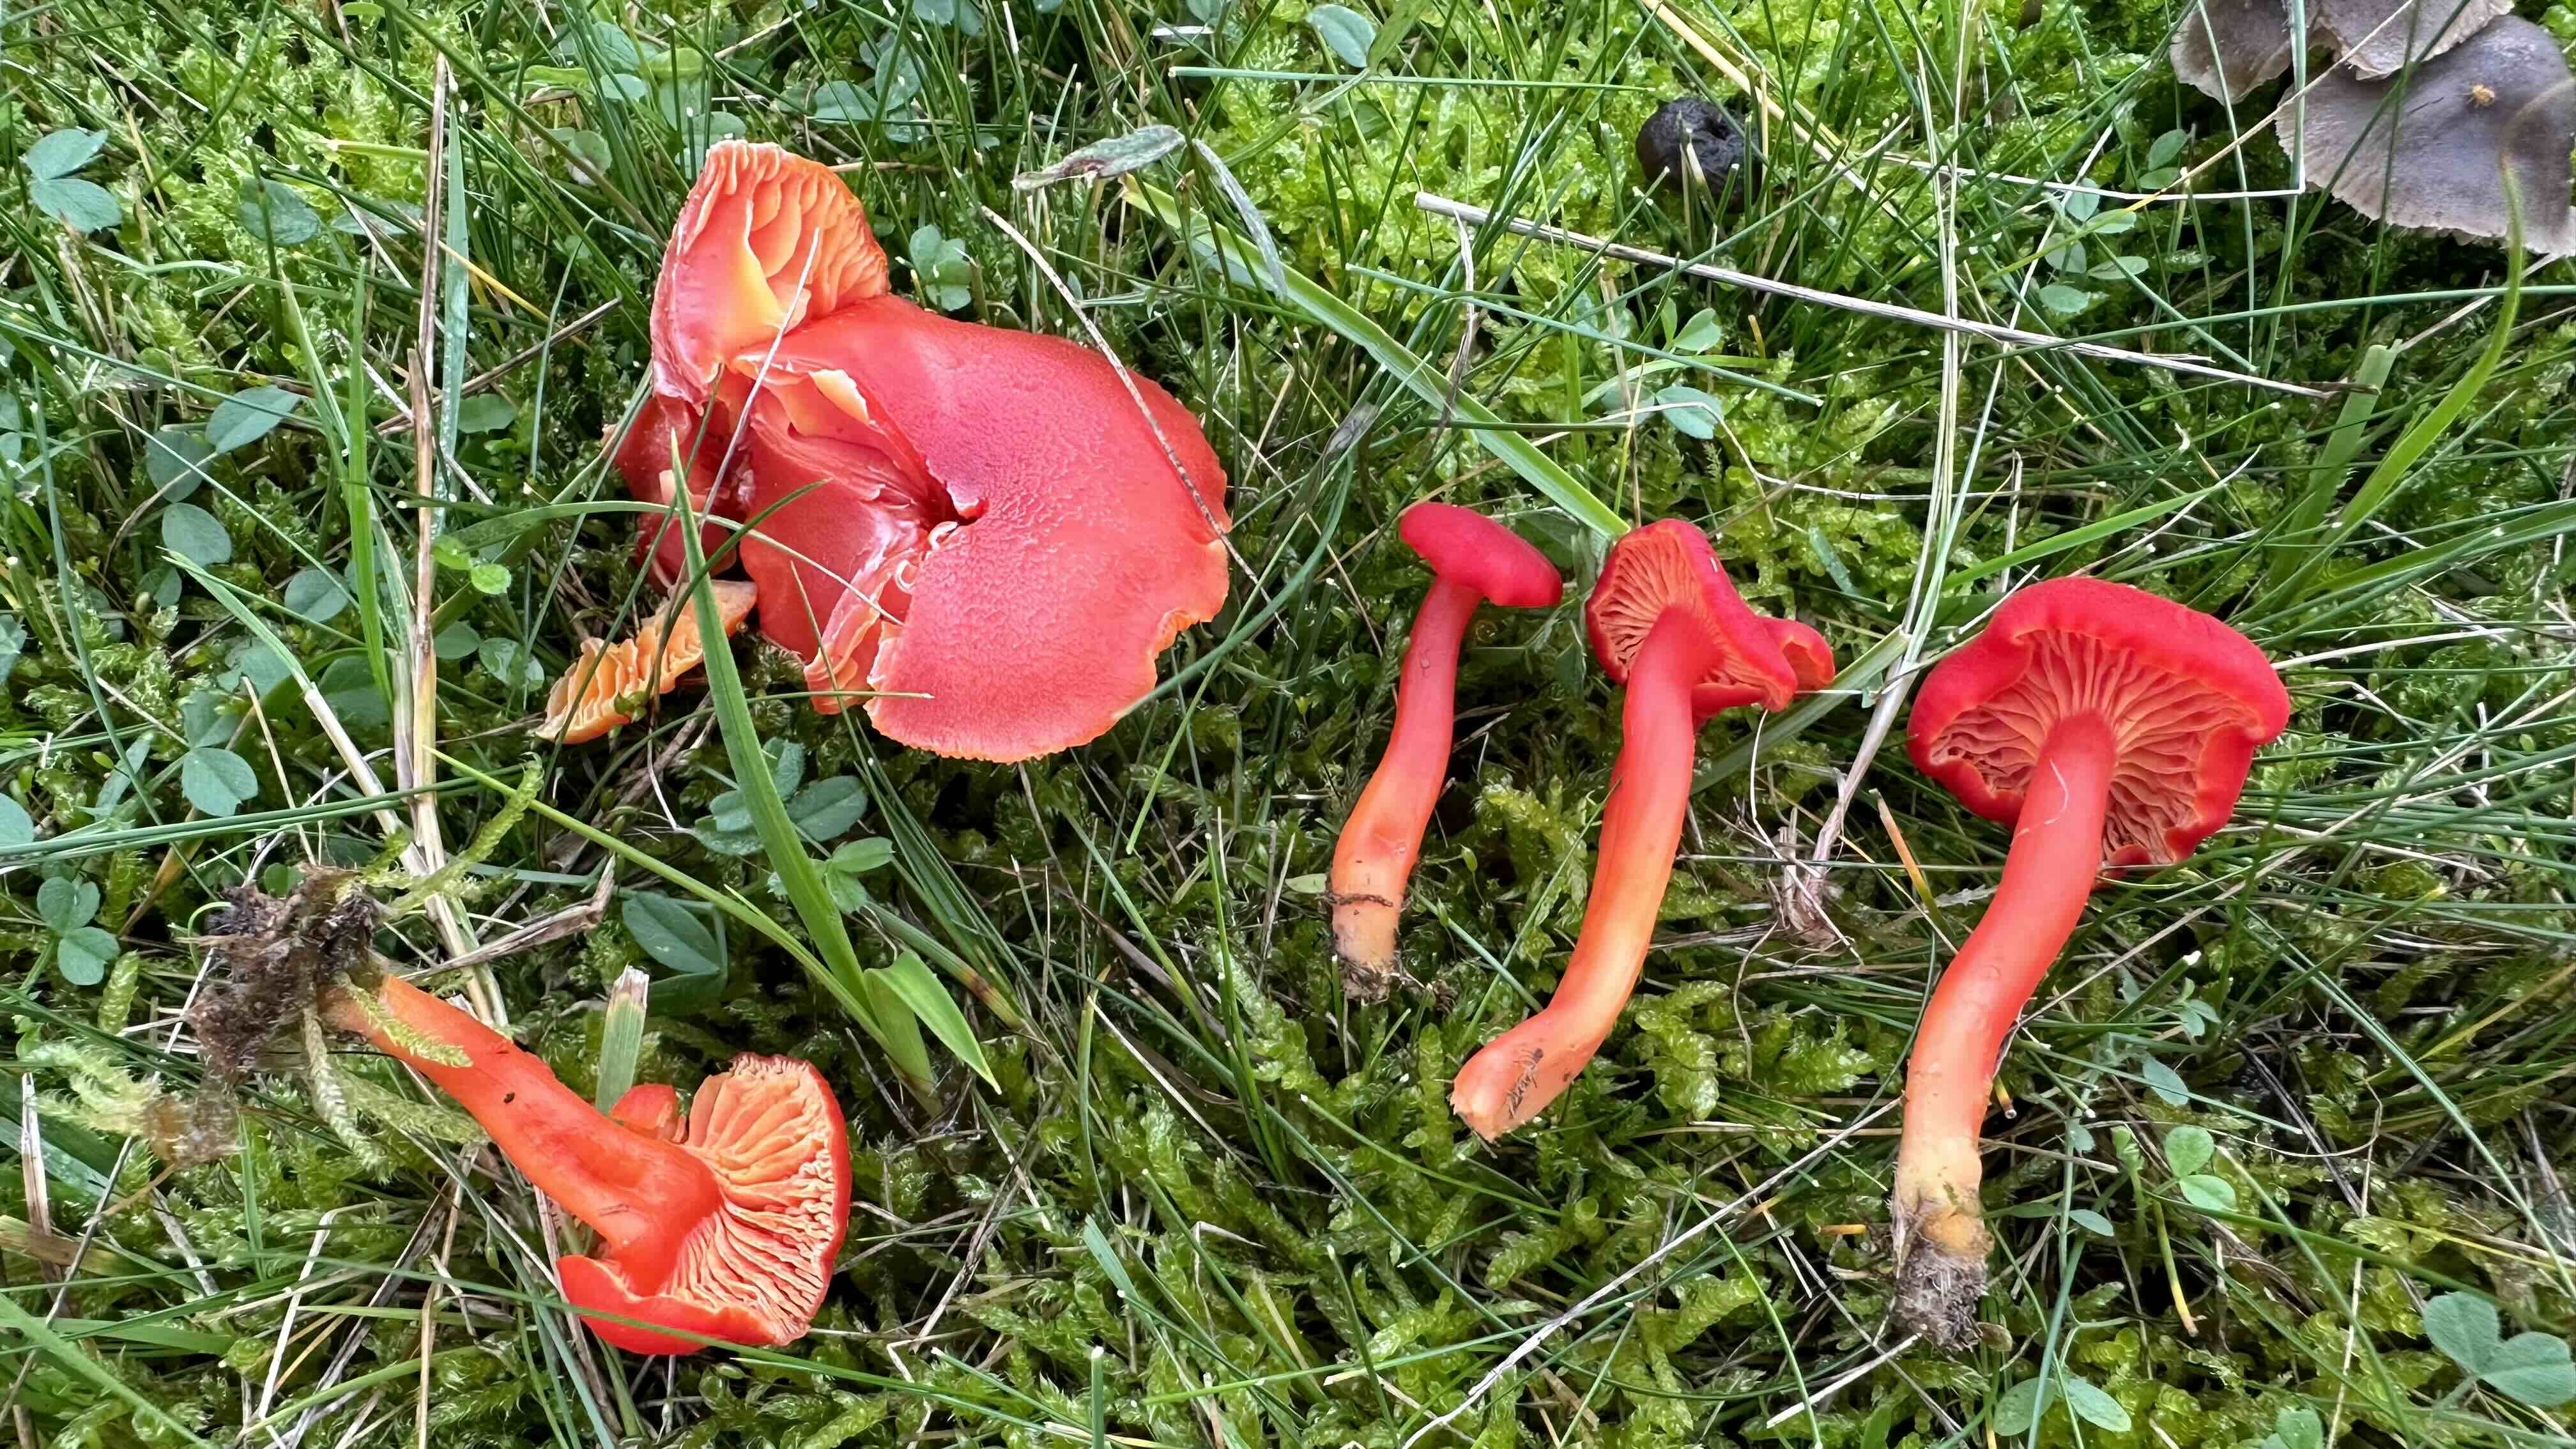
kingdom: Fungi
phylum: Basidiomycota
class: Agaricomycetes
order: Agaricales
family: Hygrophoraceae
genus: Hygrocybe
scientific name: Hygrocybe miniata
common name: mønje-vokshat
